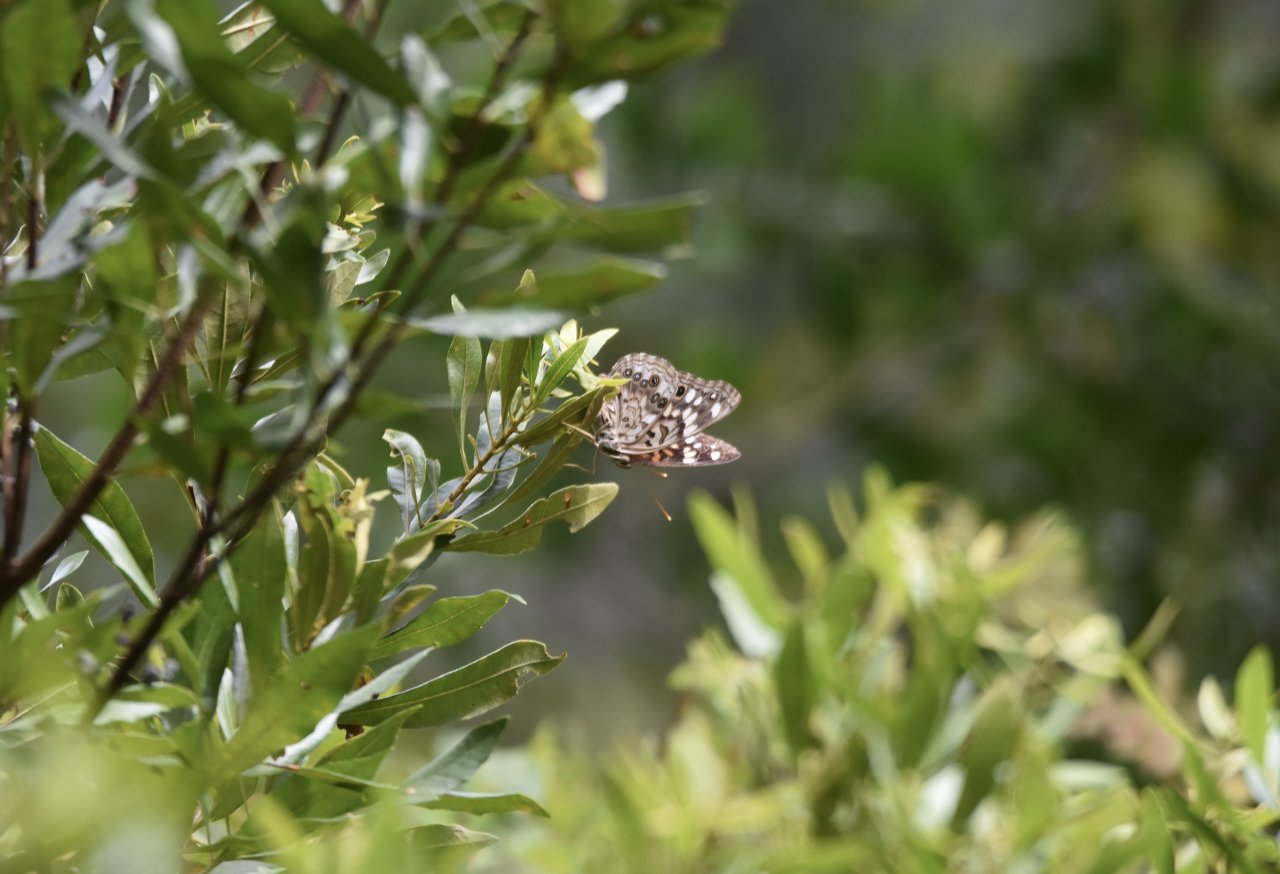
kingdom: Animalia
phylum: Arthropoda
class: Insecta
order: Lepidoptera
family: Nymphalidae
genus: Vanessa
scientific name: Vanessa cardui
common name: Painted Lady
